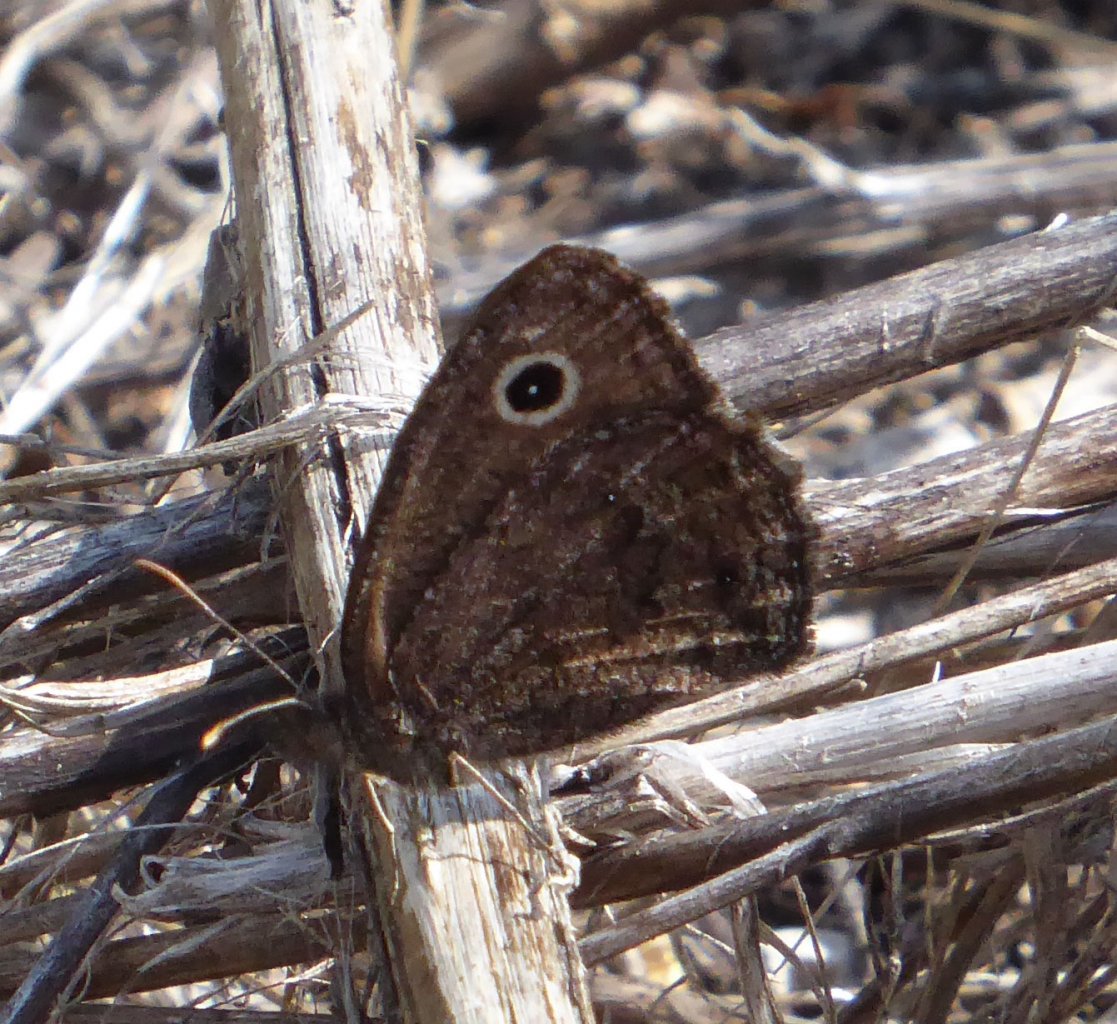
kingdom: Animalia
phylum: Arthropoda
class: Insecta
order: Lepidoptera
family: Nymphalidae
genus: Cercyonis
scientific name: Cercyonis oetus
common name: Small Wood-Nymph
